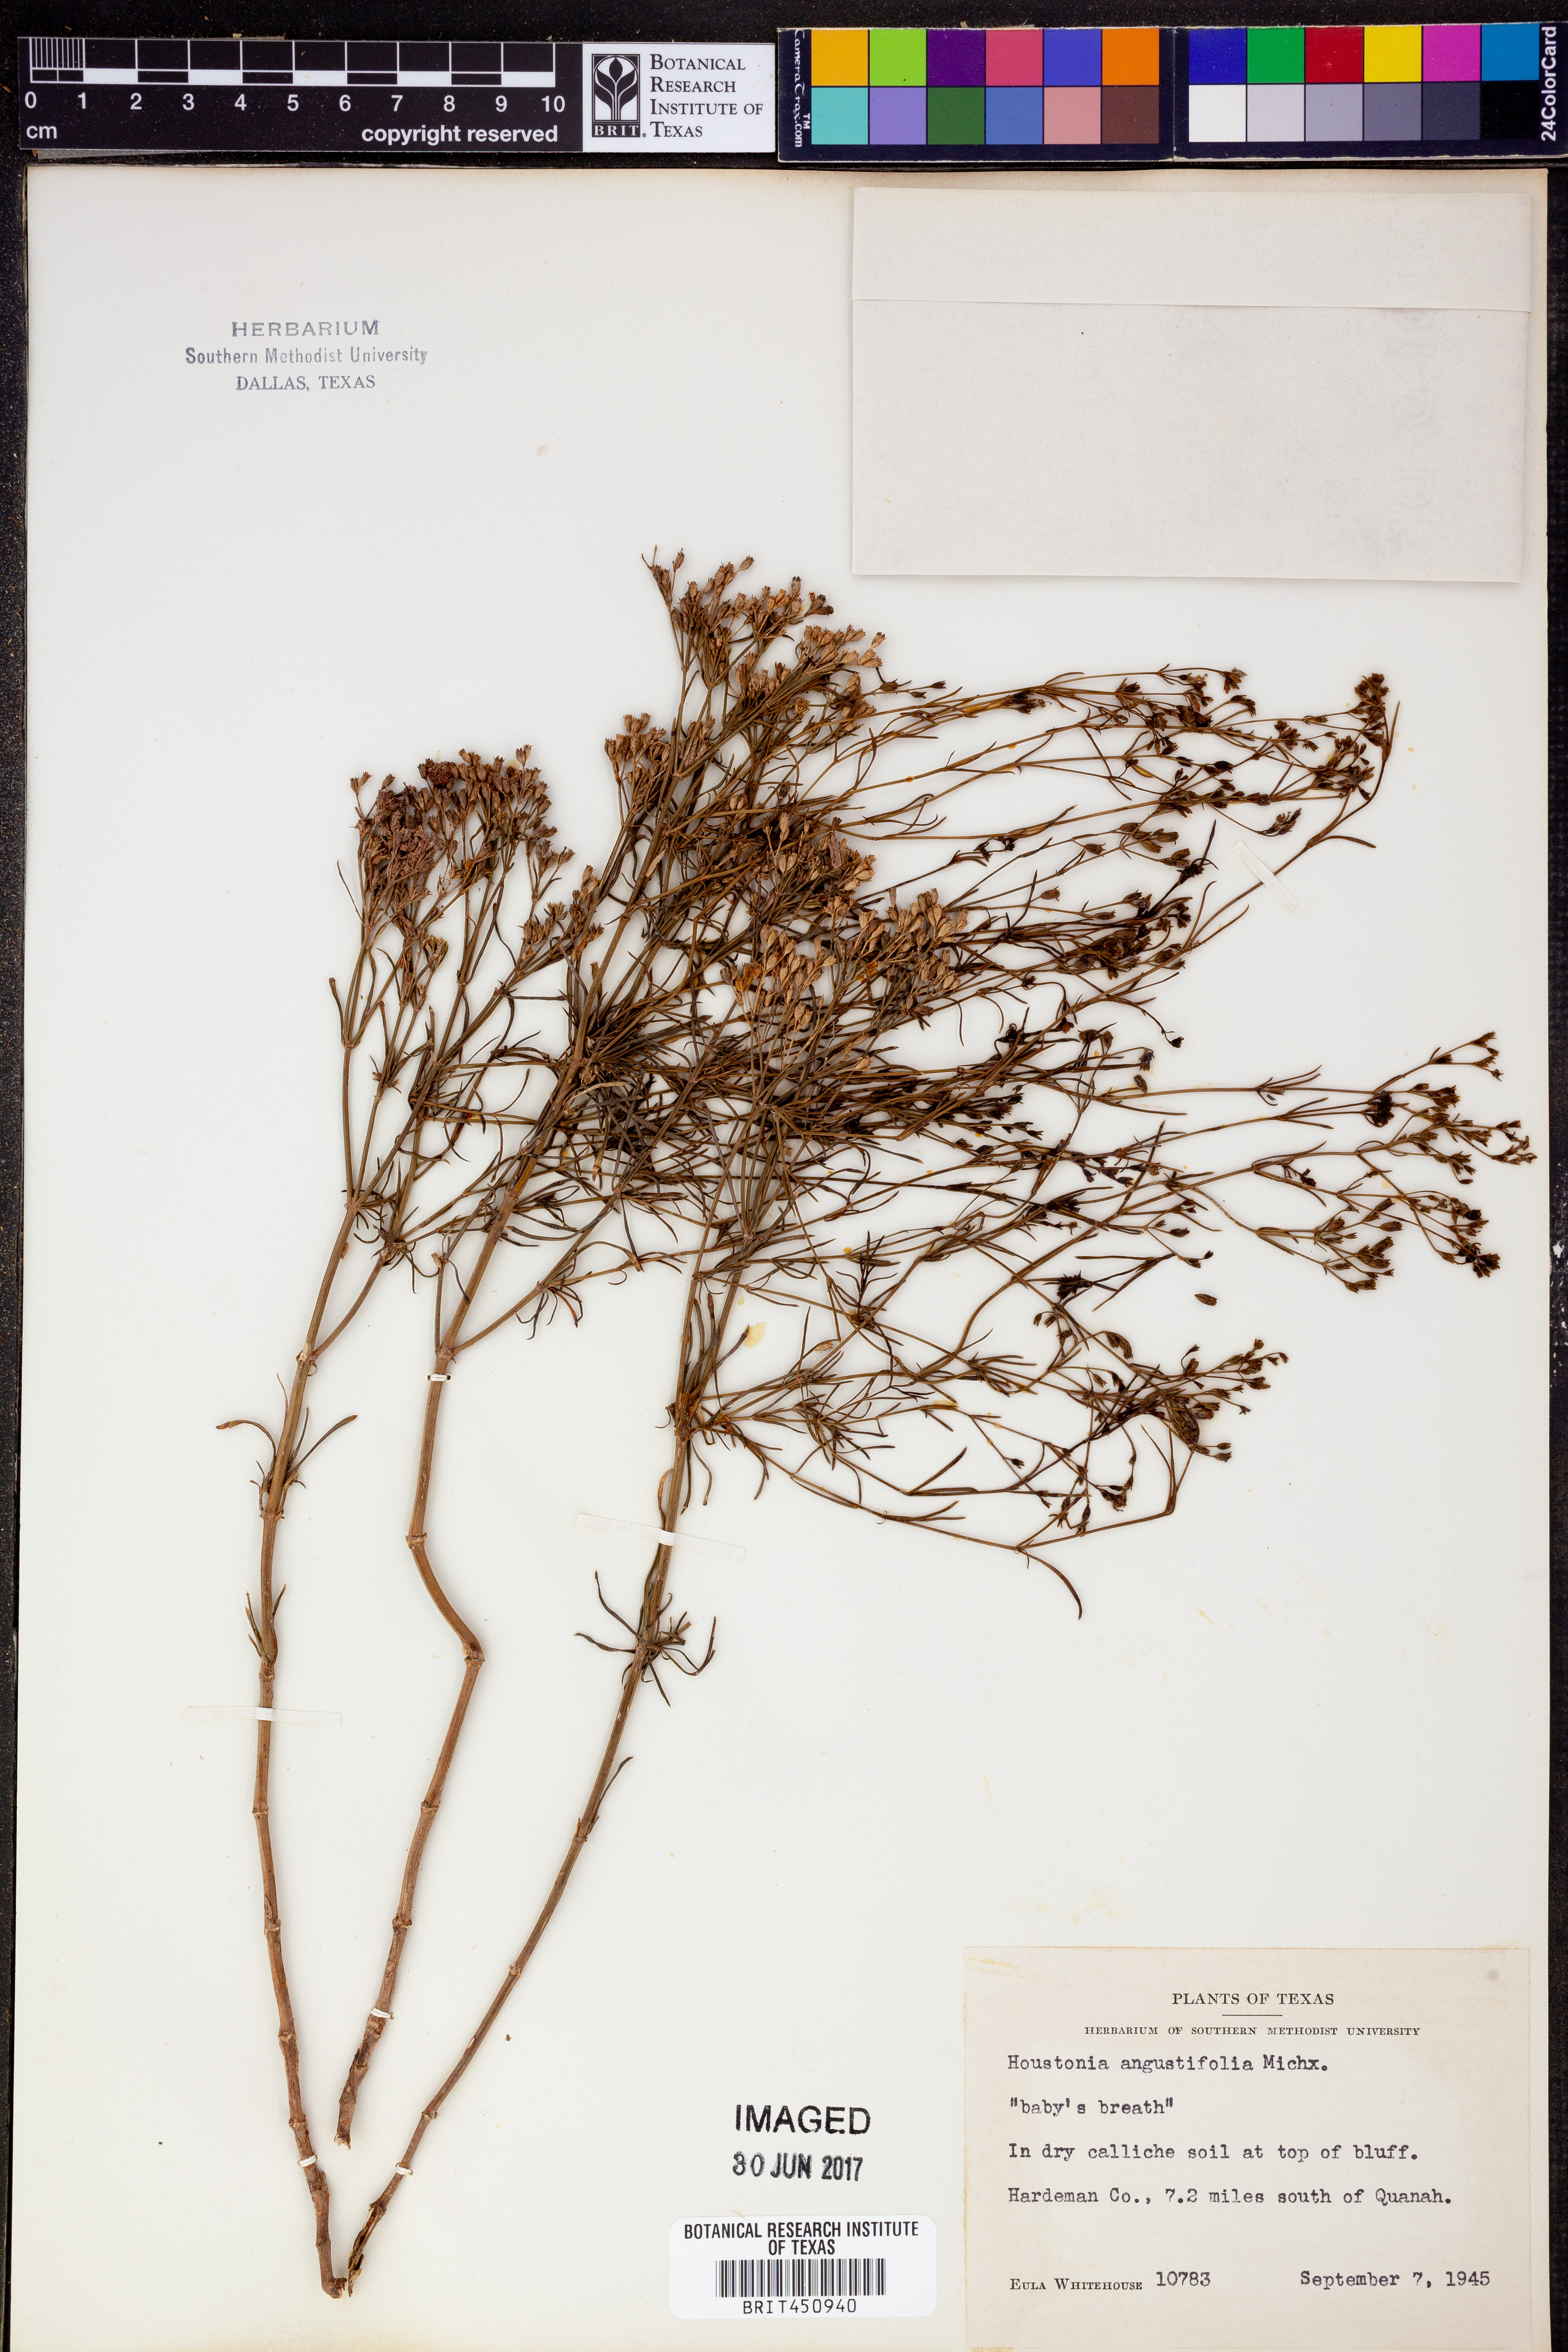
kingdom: Plantae
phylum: Tracheophyta
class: Magnoliopsida
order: Gentianales
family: Rubiaceae
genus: Stenaria
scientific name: Stenaria nigricans
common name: Diamondflowers
